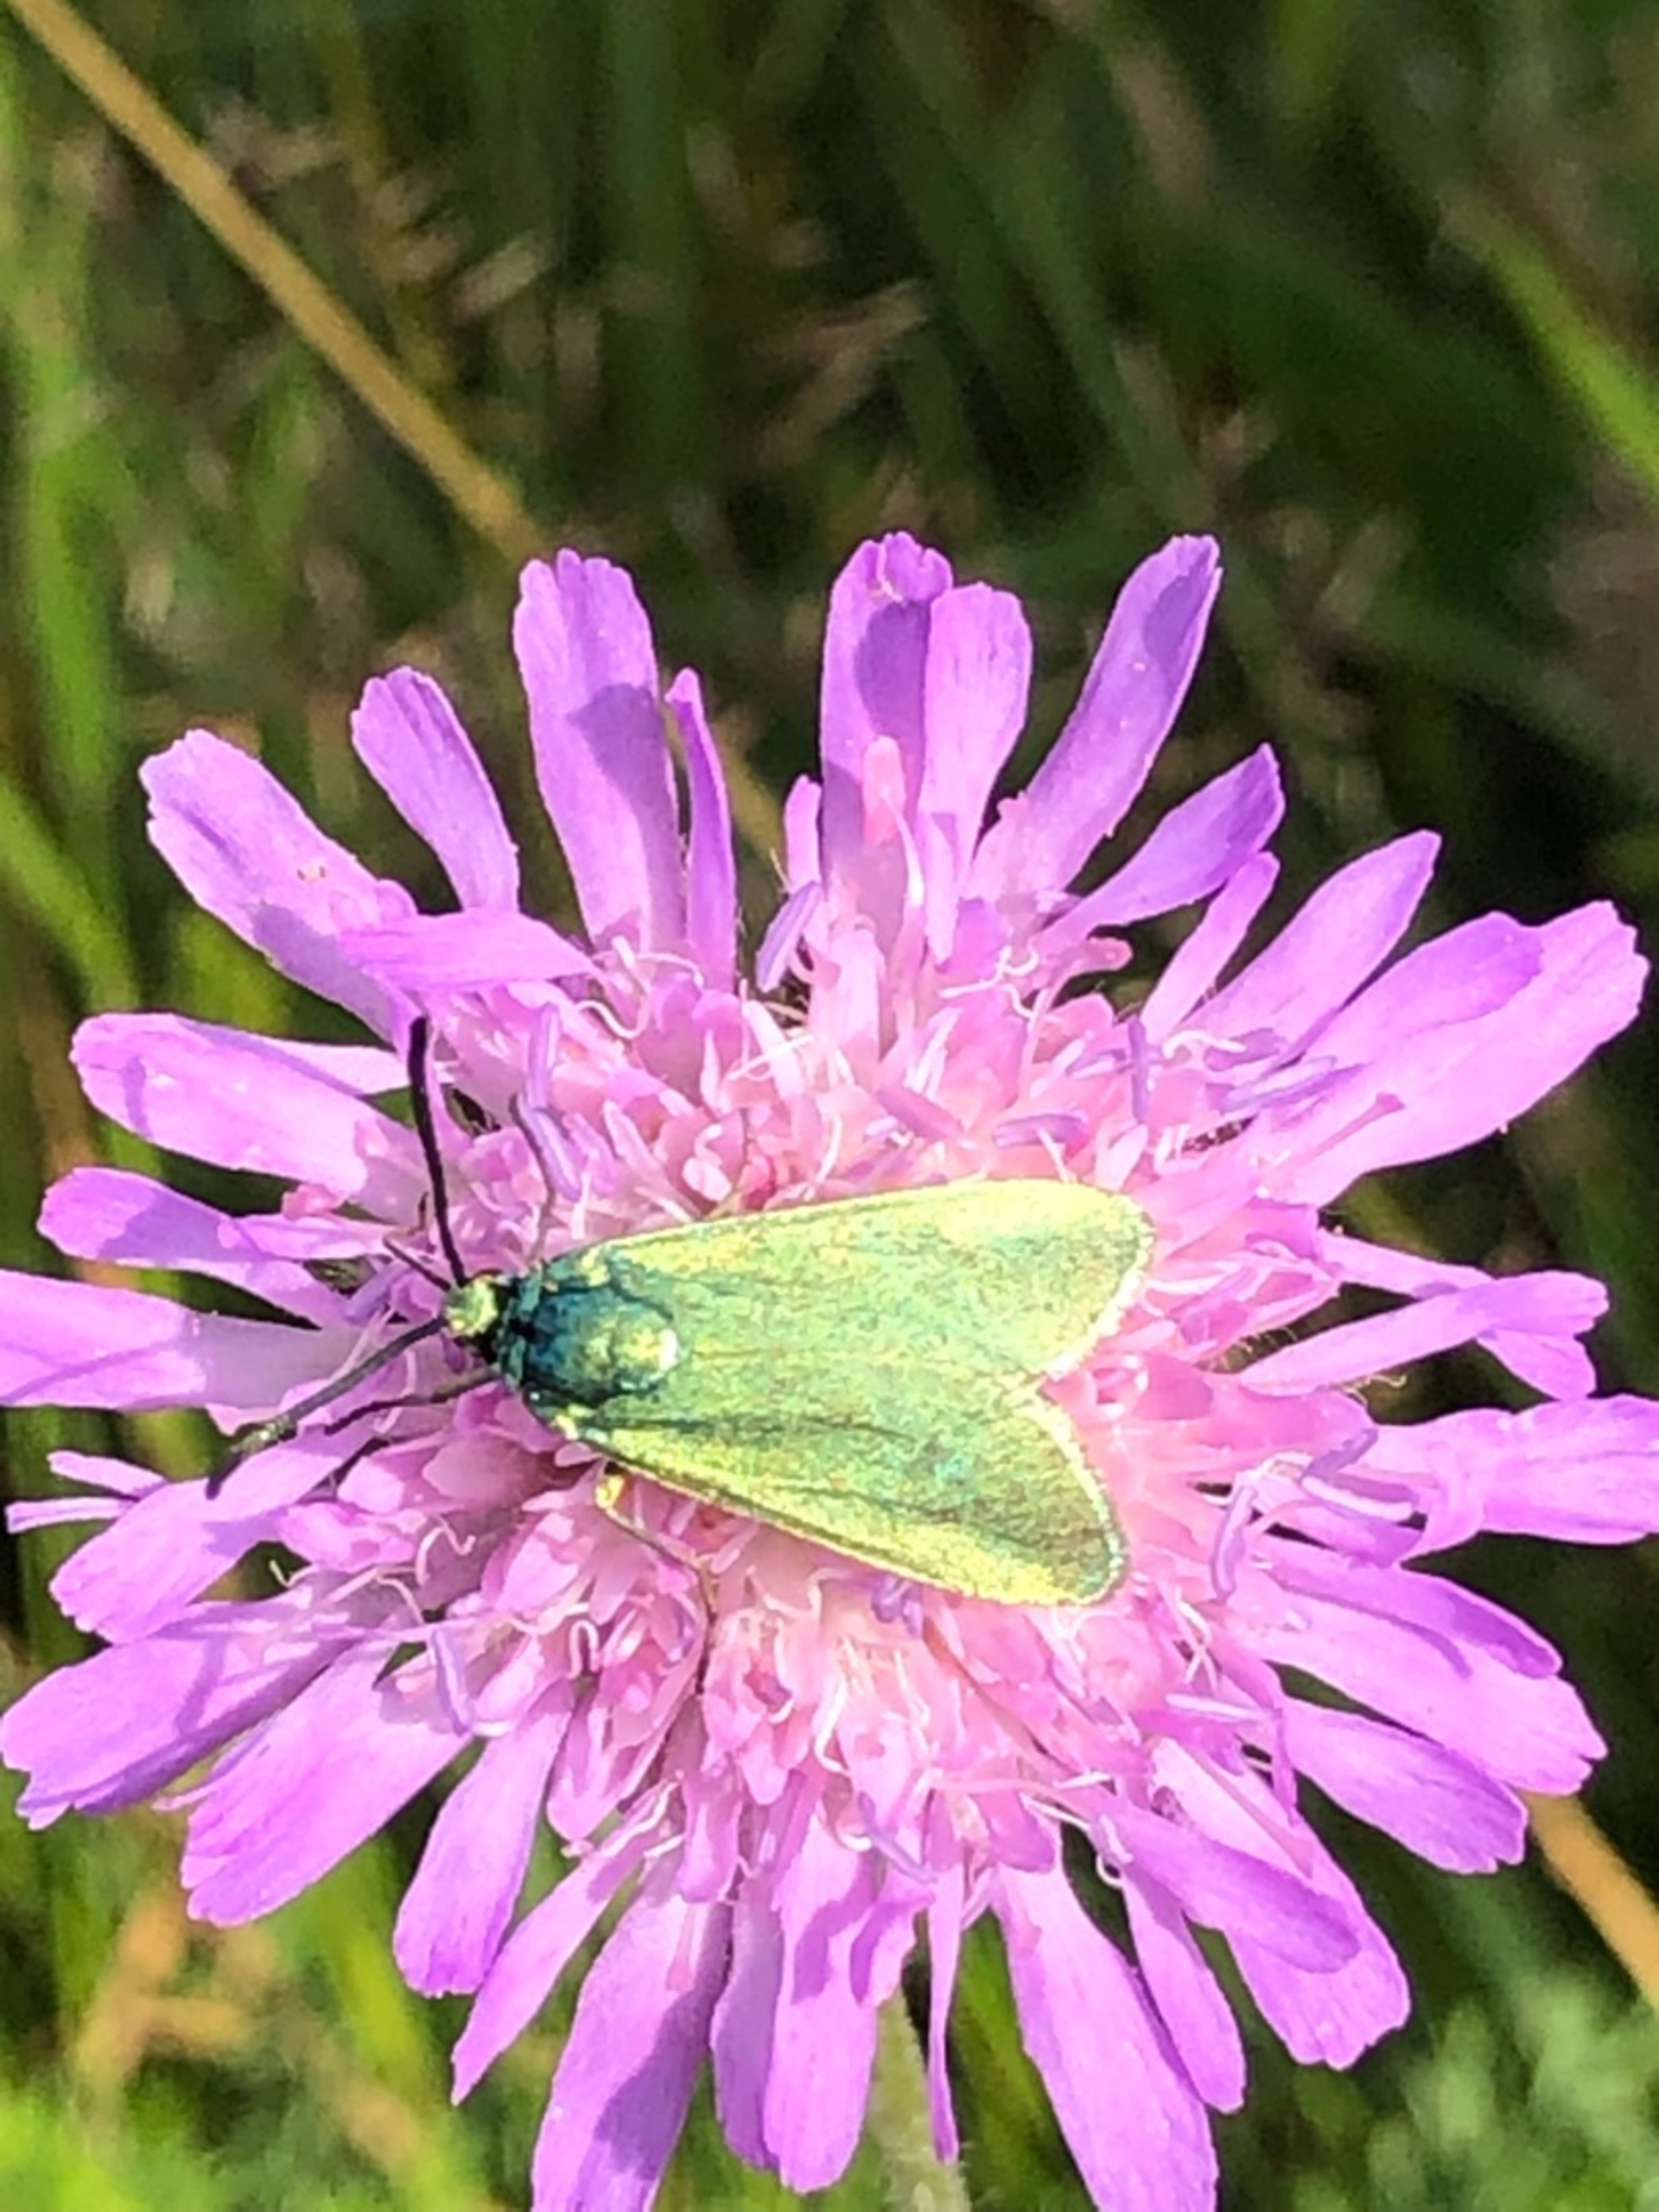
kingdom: Animalia
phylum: Arthropoda
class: Insecta
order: Lepidoptera
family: Zygaenidae
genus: Adscita
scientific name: Adscita statices
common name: Metalvinge
